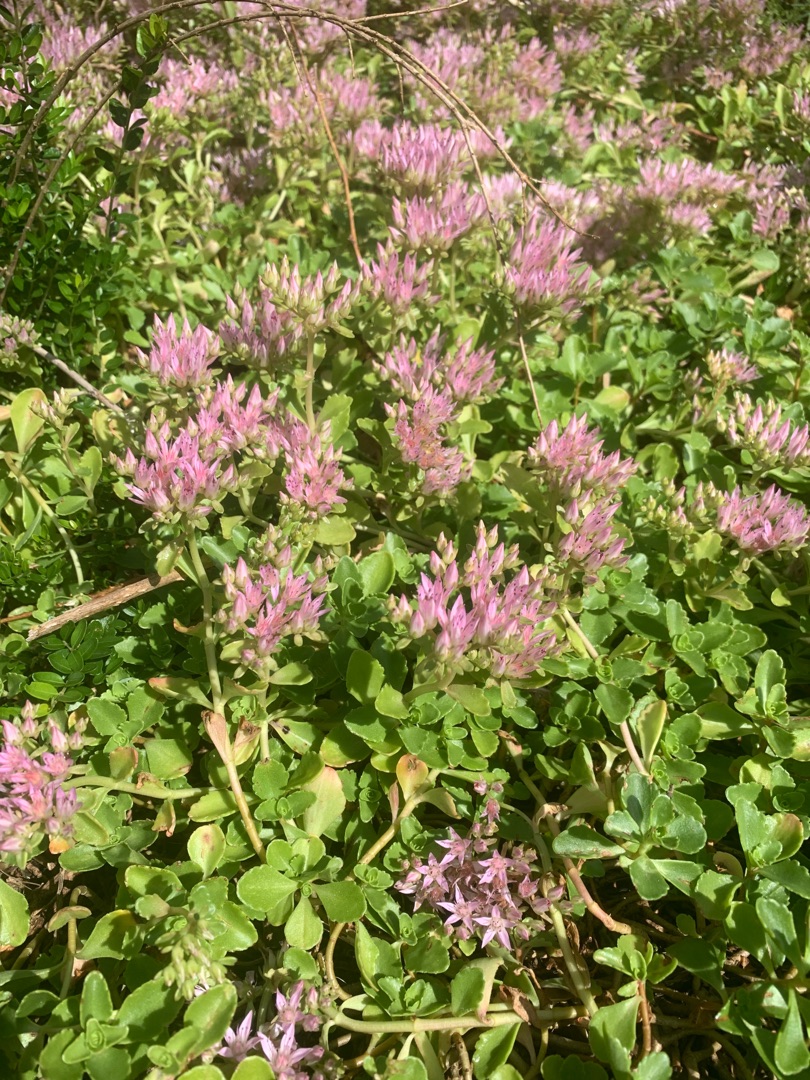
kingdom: Plantae
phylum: Tracheophyta
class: Magnoliopsida
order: Saxifragales
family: Crassulaceae
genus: Phedimus
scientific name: Phedimus spurius
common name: Rød stenurt
